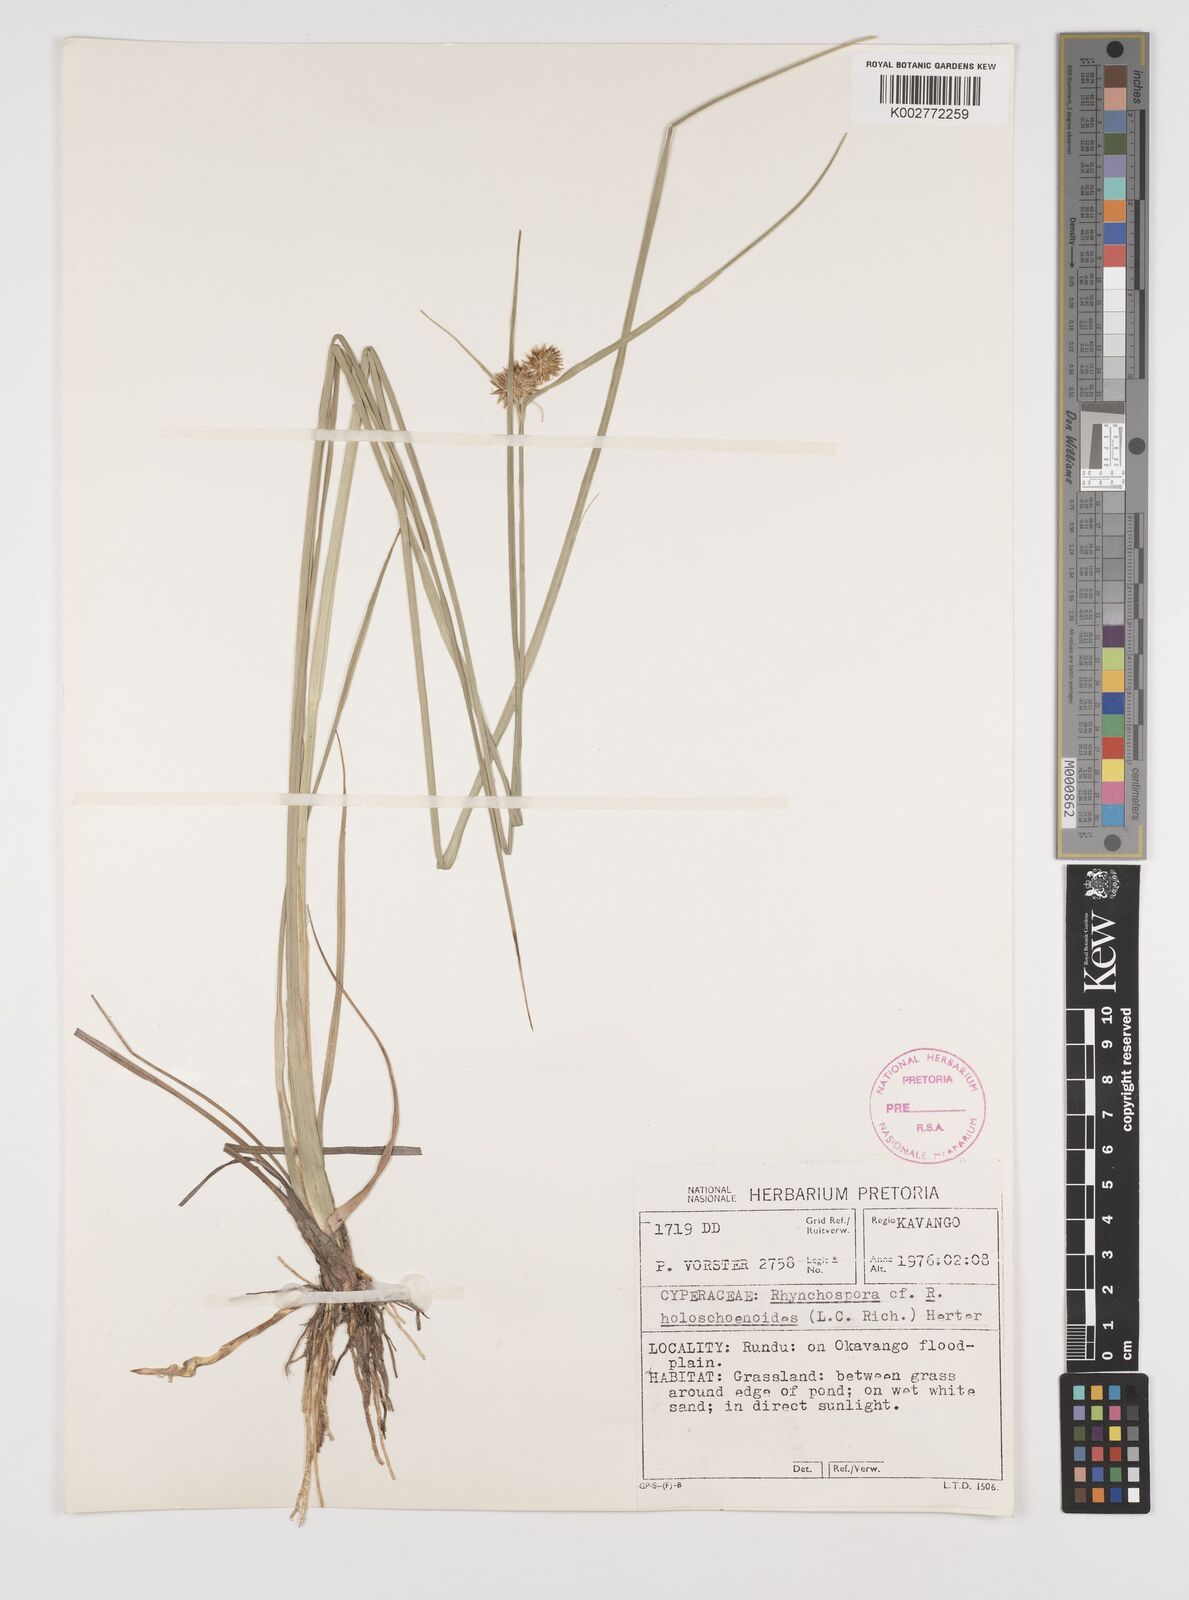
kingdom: Plantae
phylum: Tracheophyta
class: Liliopsida
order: Poales
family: Cyperaceae
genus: Rhynchospora
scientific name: Rhynchospora holoschoenoides
